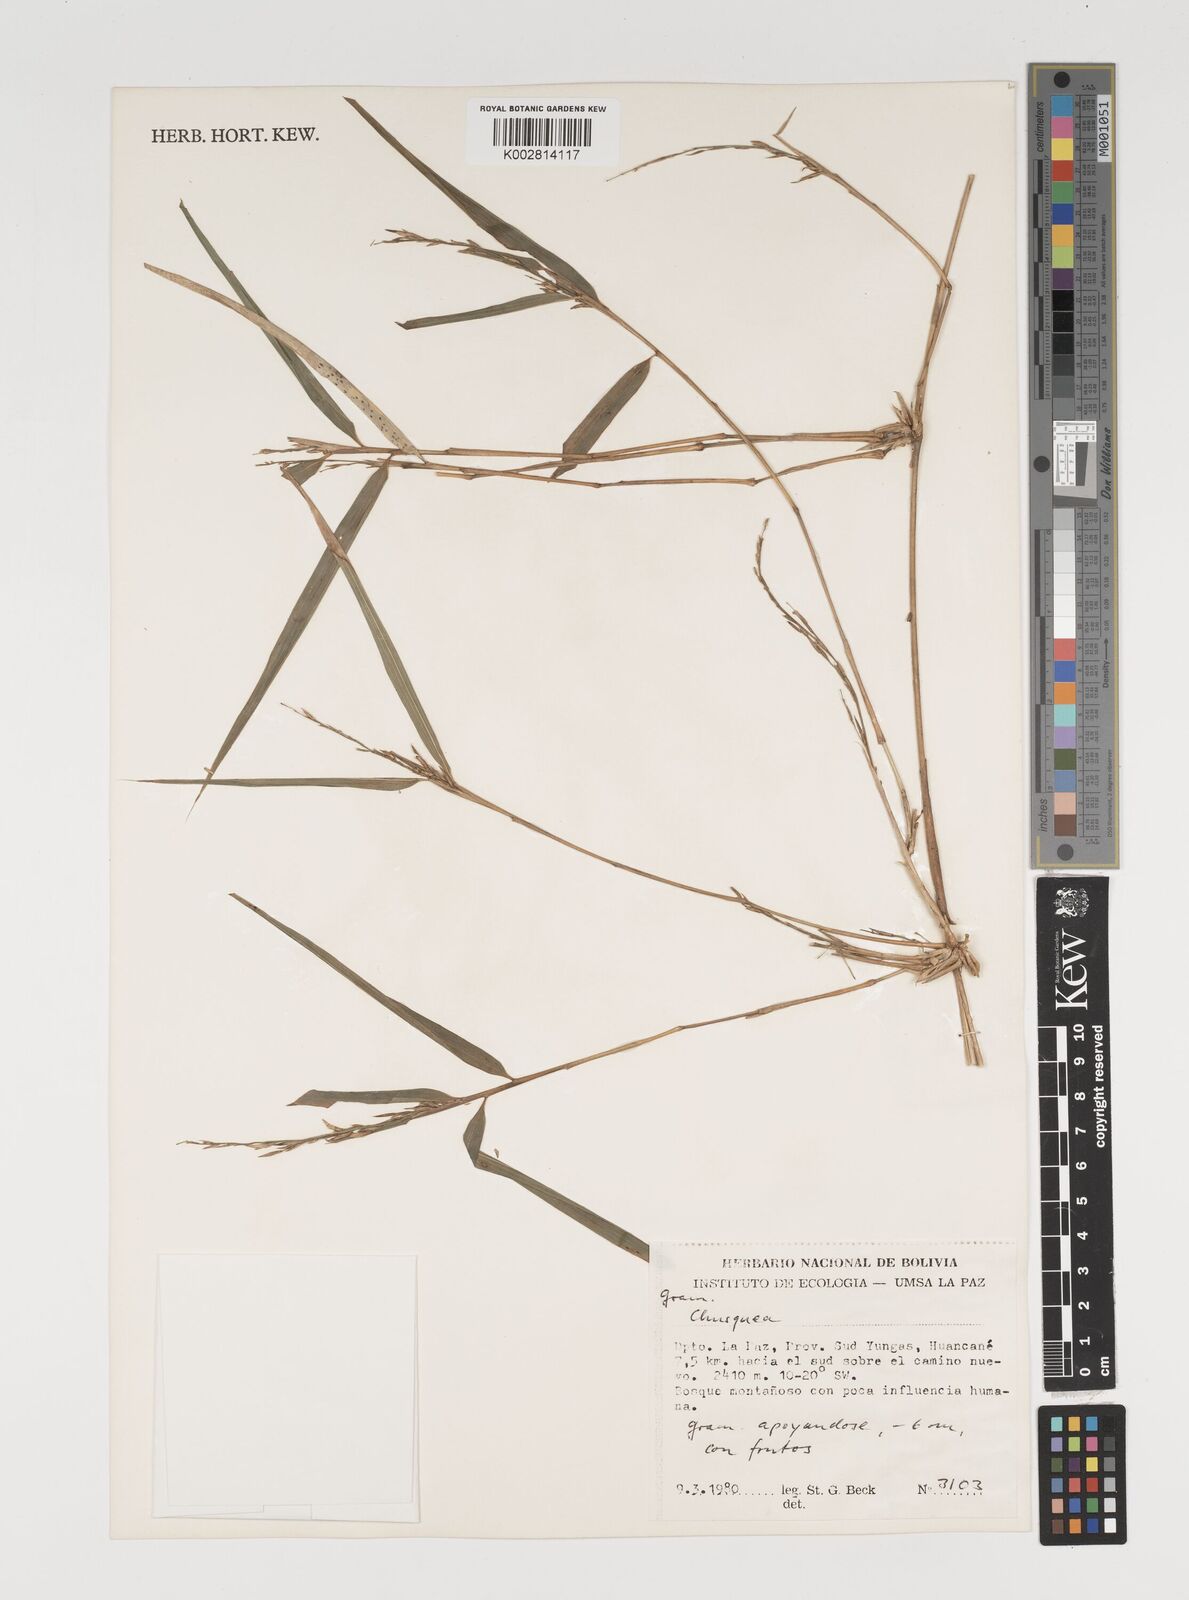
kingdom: Plantae
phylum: Tracheophyta
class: Liliopsida
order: Poales
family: Poaceae
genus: Chusquea
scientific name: Chusquea
